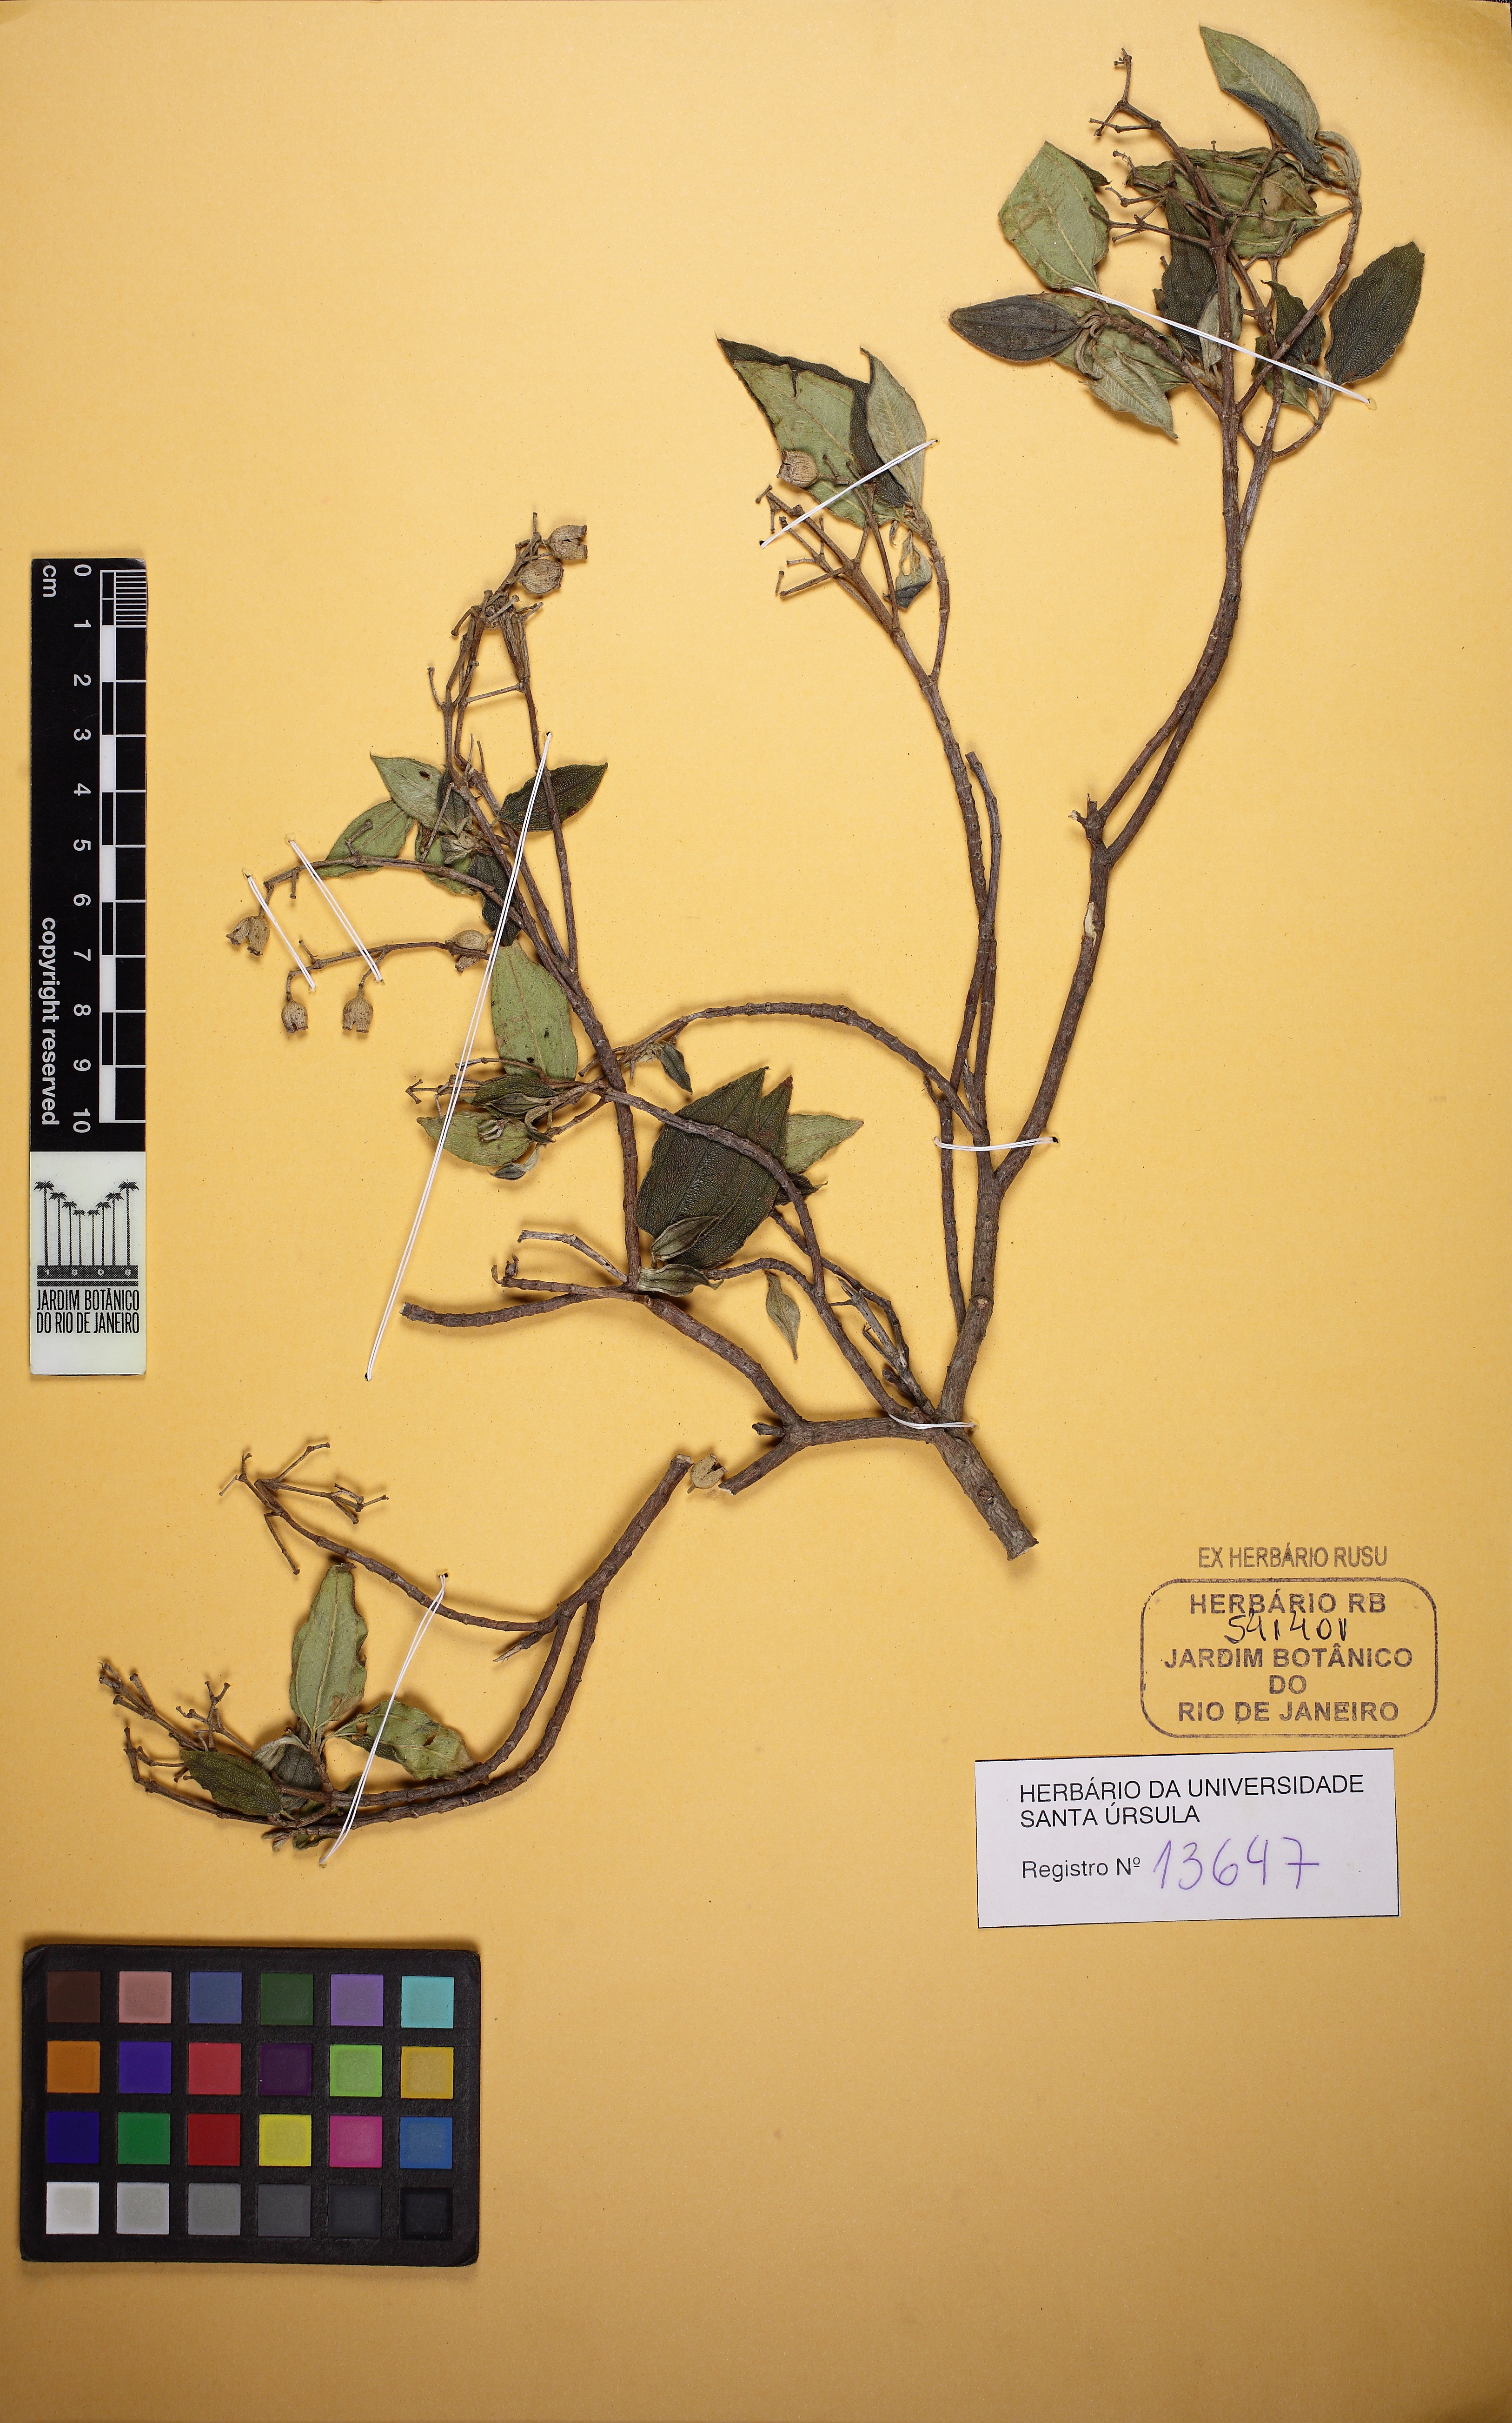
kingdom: Plantae
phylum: Tracheophyta
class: Magnoliopsida
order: Myrtales
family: Melastomataceae
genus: Pleroma
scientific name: Pleroma vimineum
